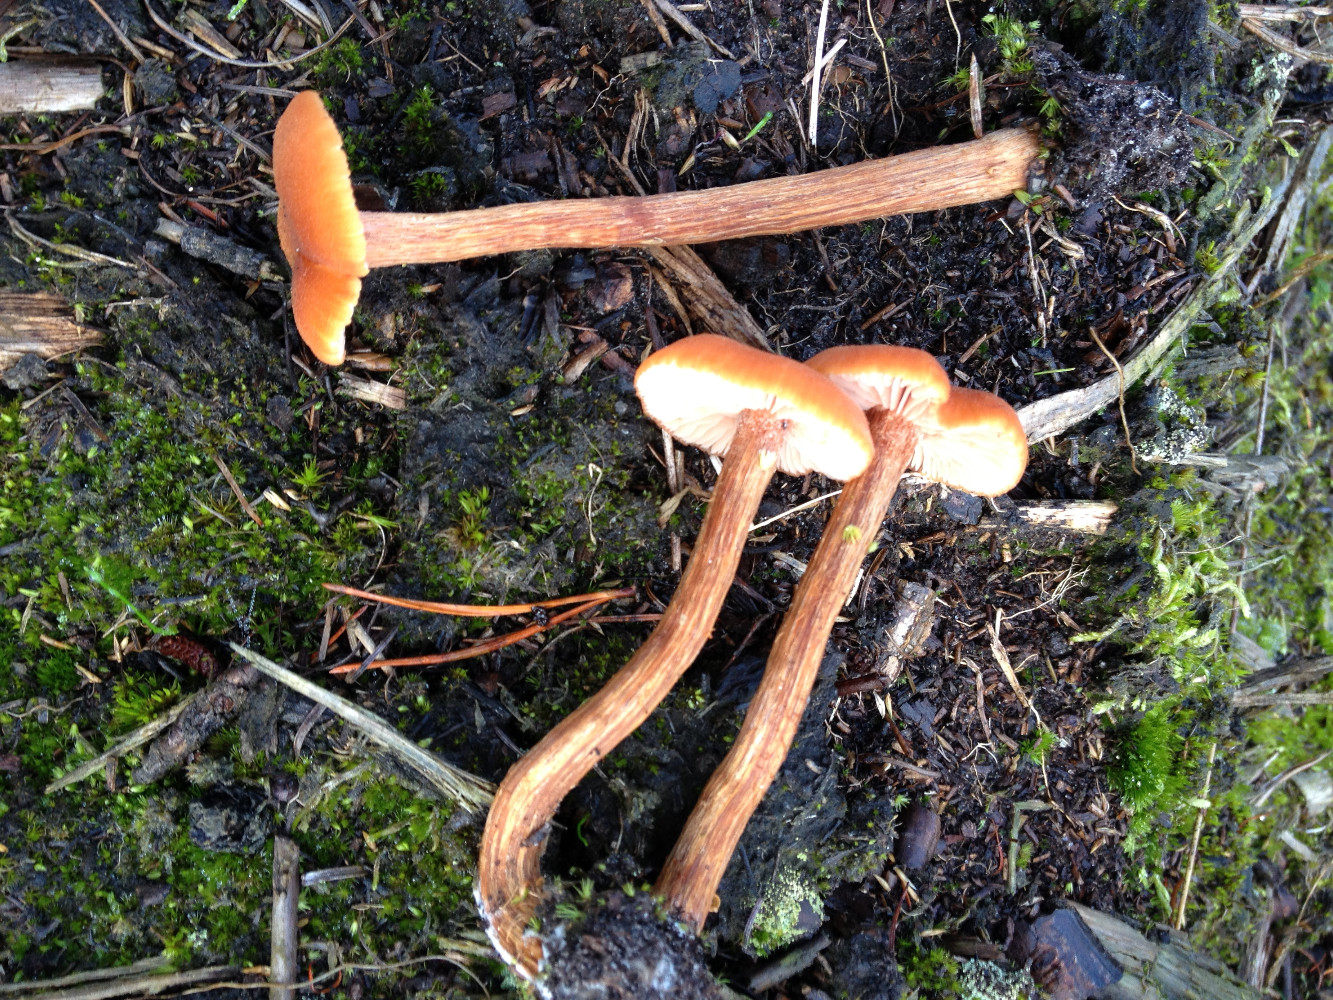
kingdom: Fungi
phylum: Basidiomycota
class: Agaricomycetes
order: Agaricales
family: Hydnangiaceae
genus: Laccaria
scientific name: Laccaria proxima
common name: stor ametysthat
